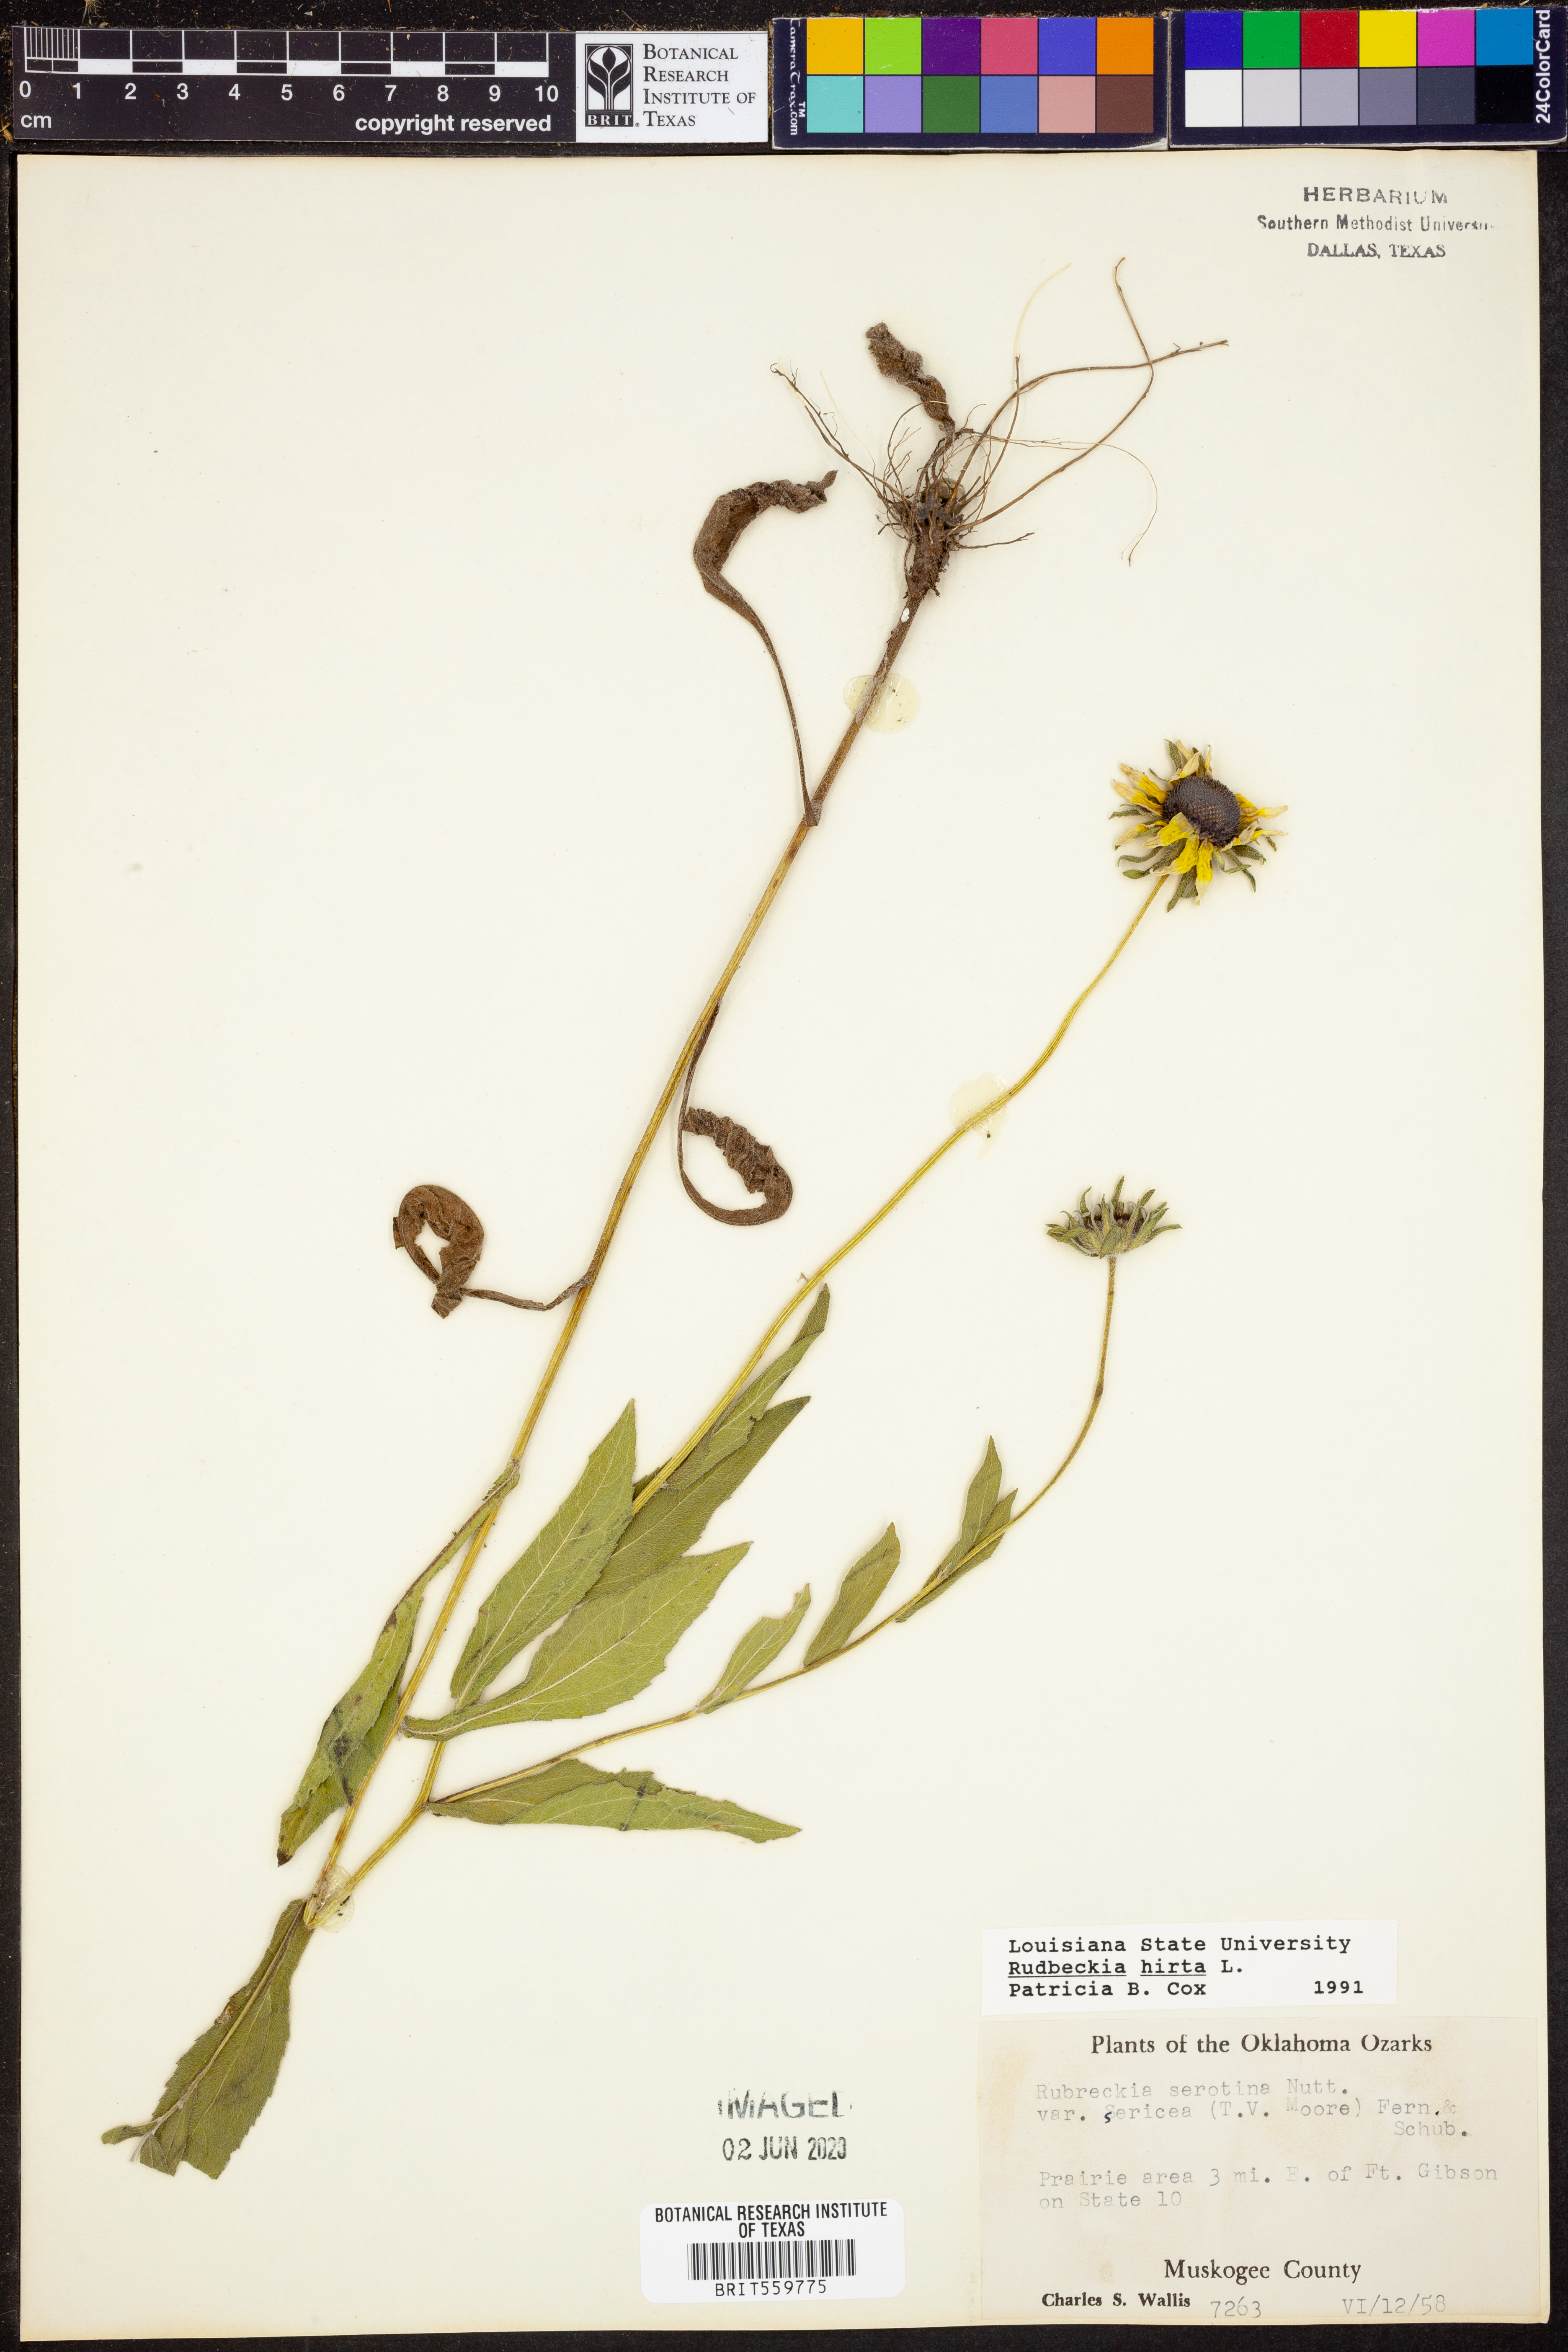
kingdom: Plantae
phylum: Tracheophyta
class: Magnoliopsida
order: Asterales
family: Asteraceae
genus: Rudbeckia
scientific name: Rudbeckia hirta
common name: Black-eyed-susan
